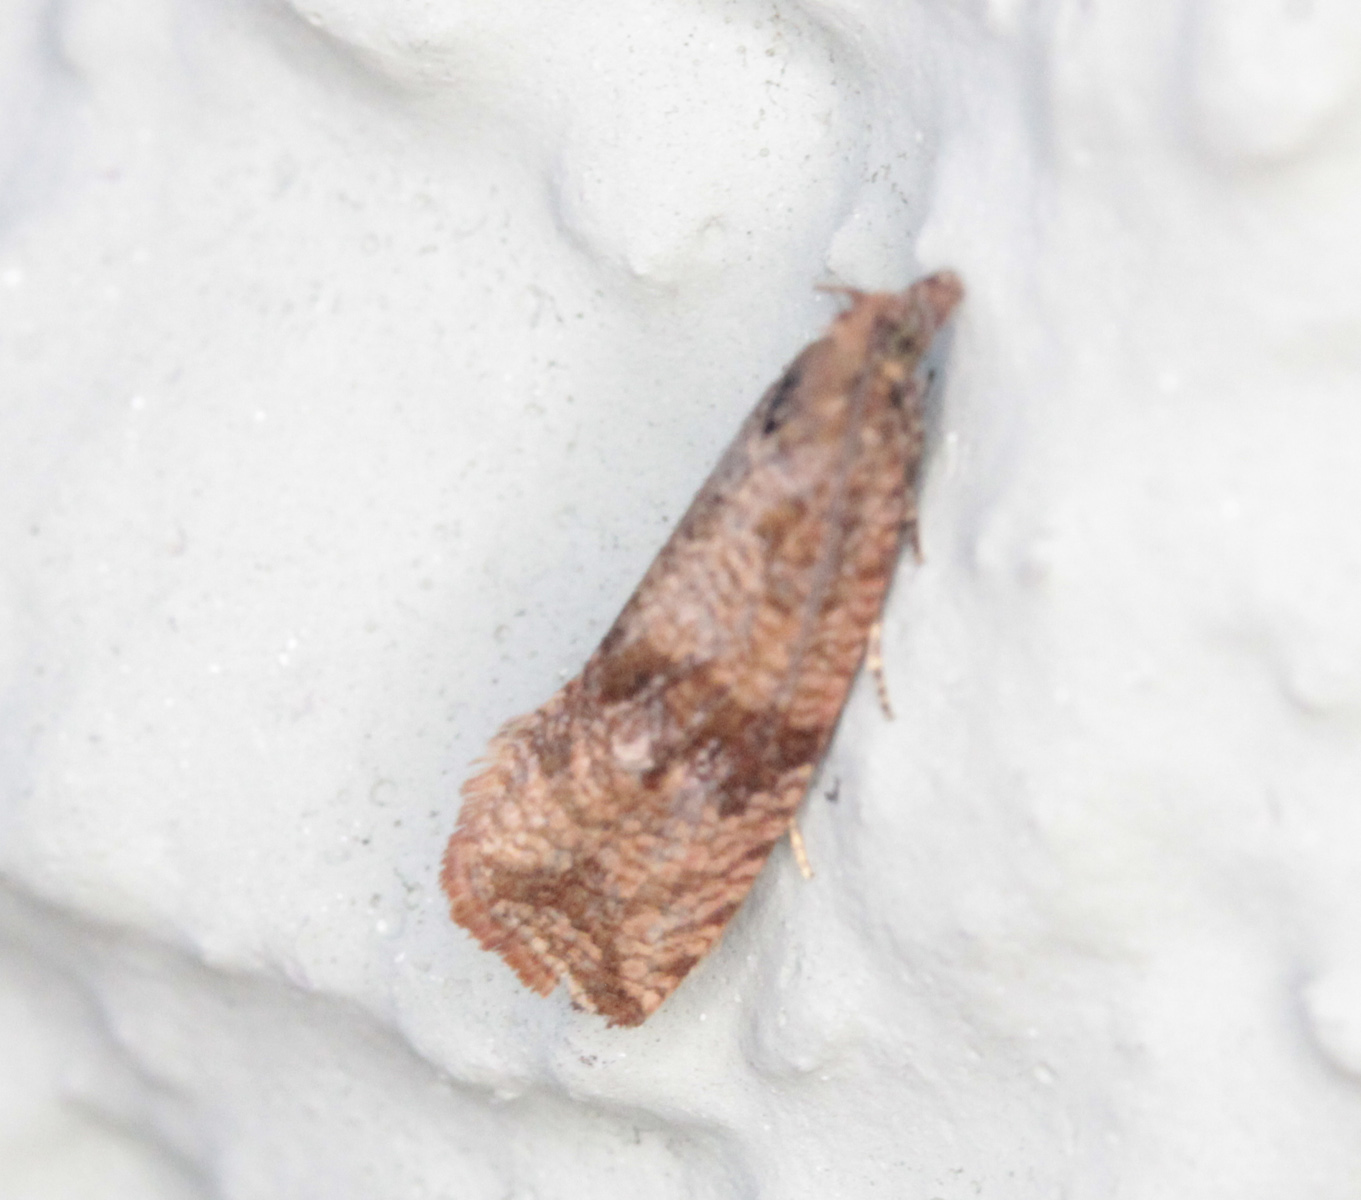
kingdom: Animalia
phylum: Arthropoda
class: Insecta
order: Lepidoptera
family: Tortricidae
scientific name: Tortricidae
